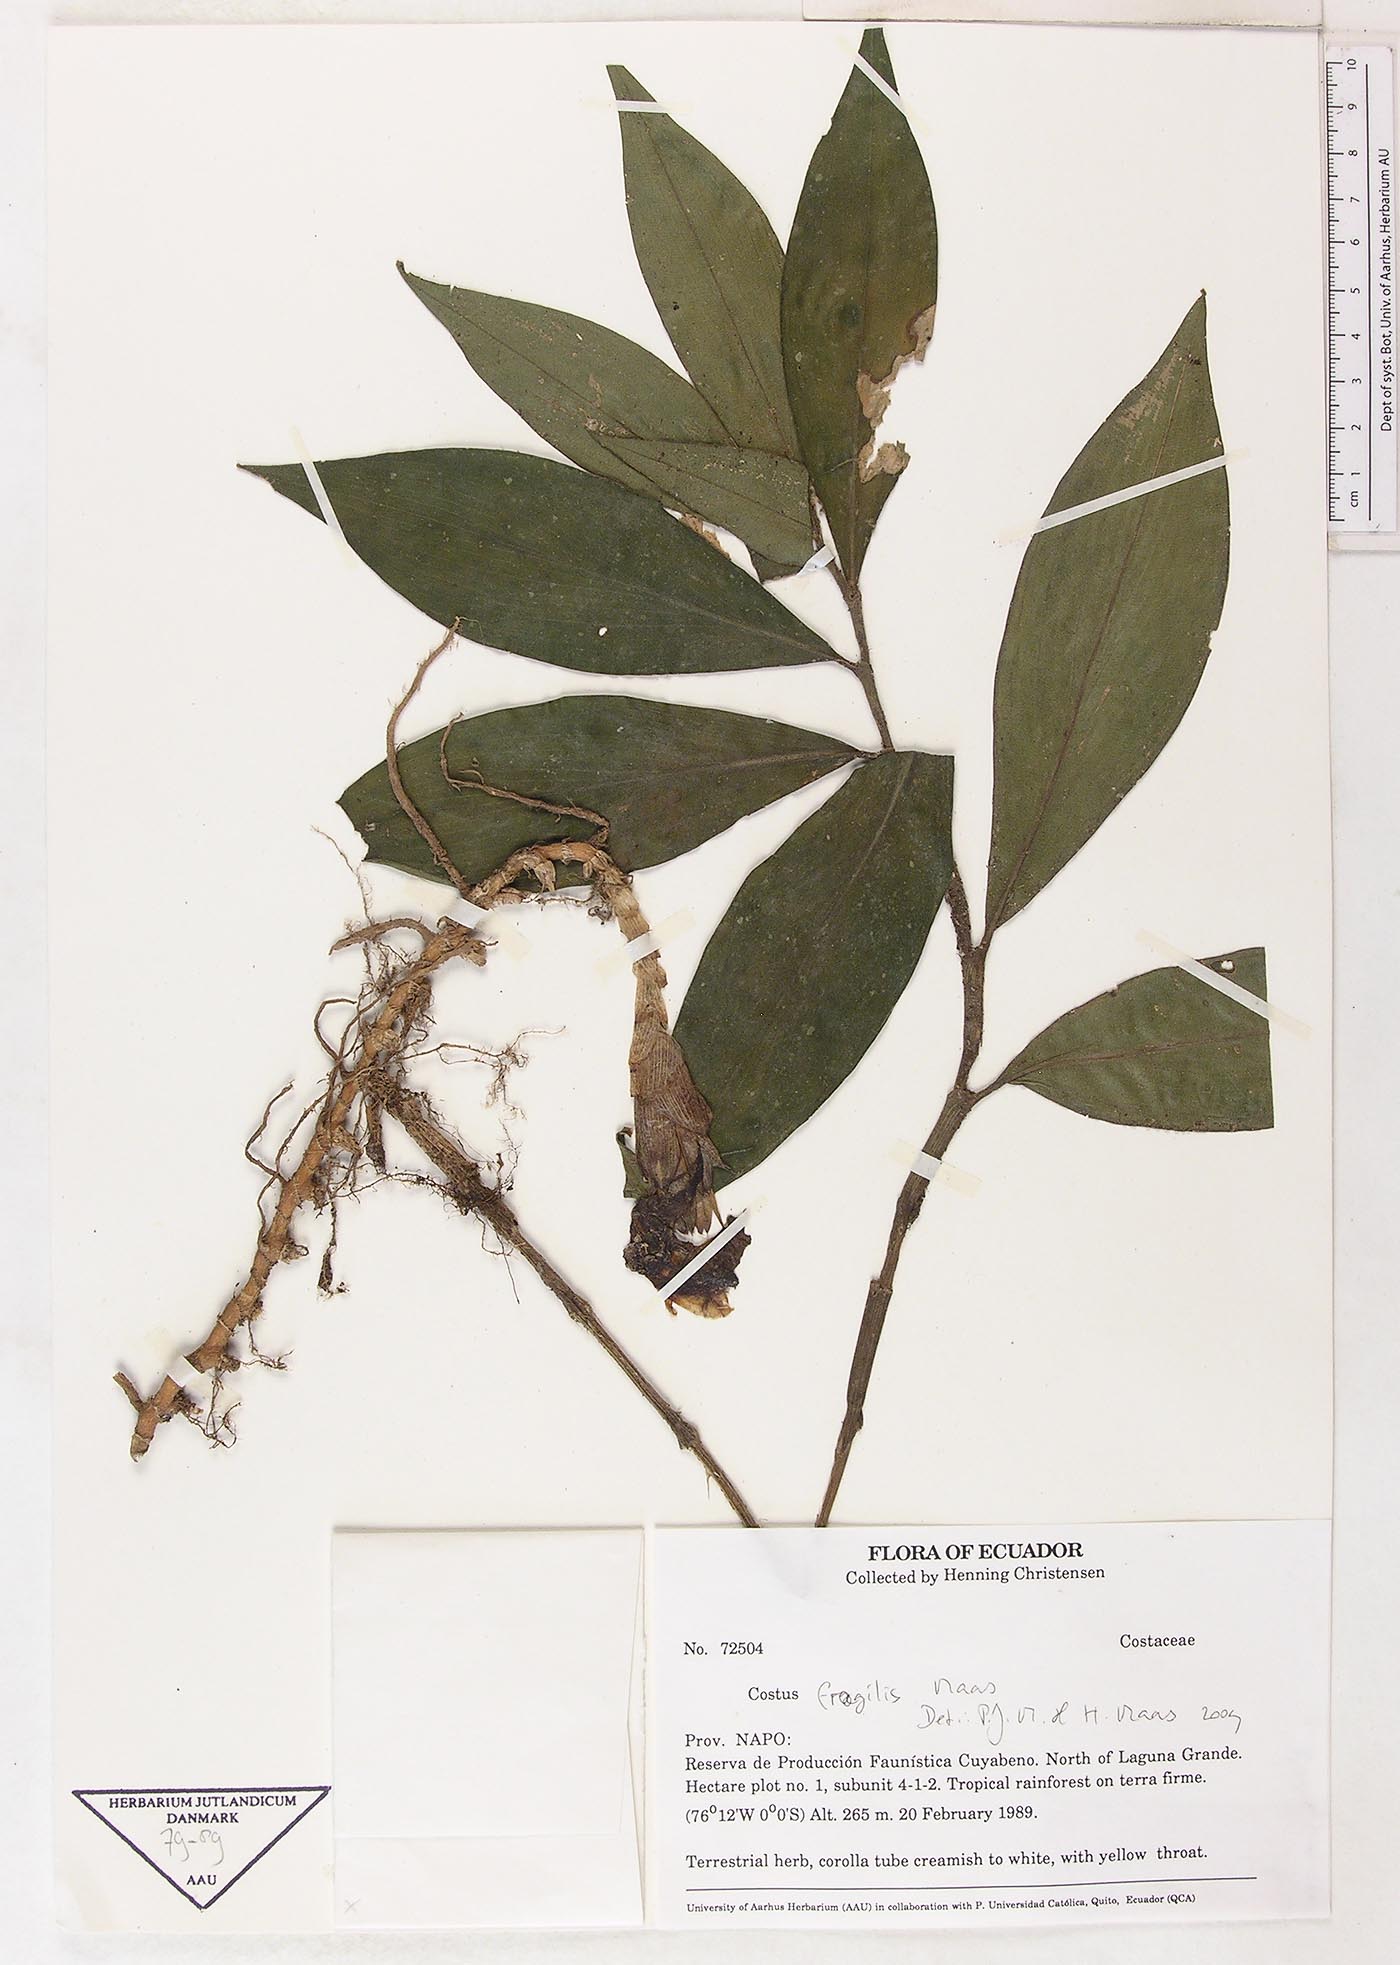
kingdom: Plantae
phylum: Tracheophyta
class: Liliopsida
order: Zingiberales
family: Costaceae
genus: Chamaecostus
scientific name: Chamaecostus fragilis
